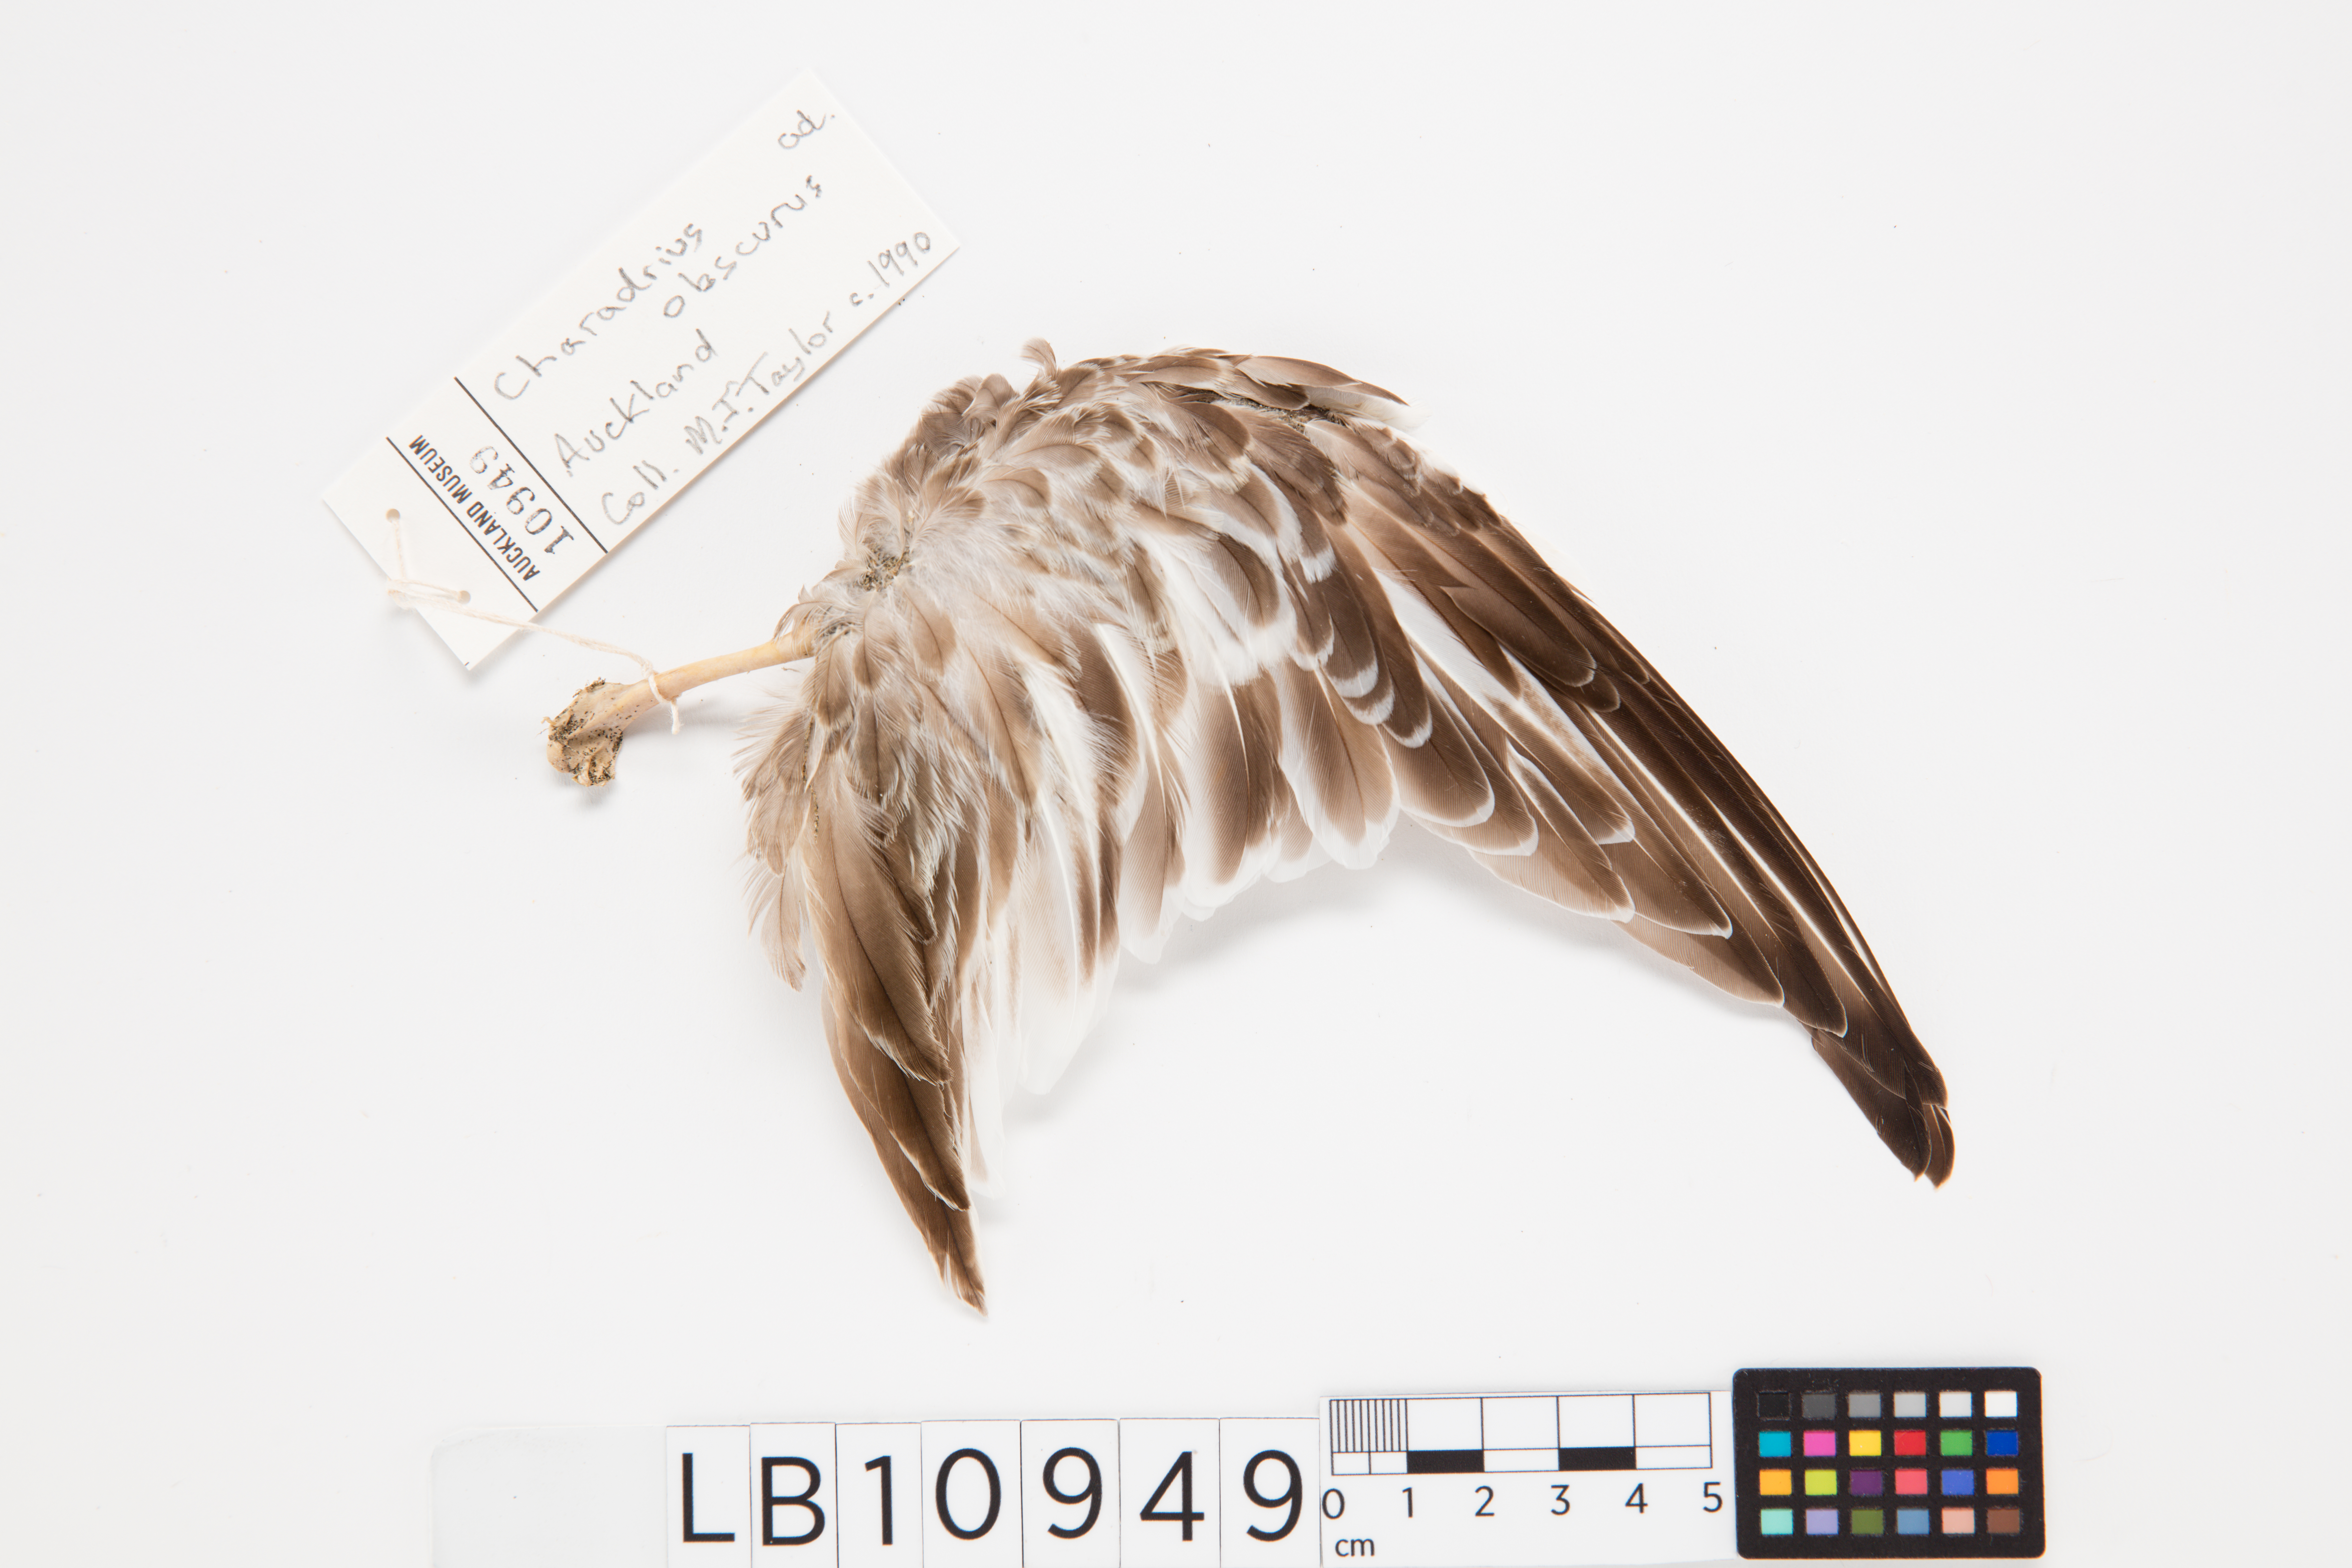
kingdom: Animalia
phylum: Chordata
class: Aves
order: Charadriiformes
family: Charadriidae
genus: Charadrius
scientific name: Charadrius obscurus
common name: New zealand plover
